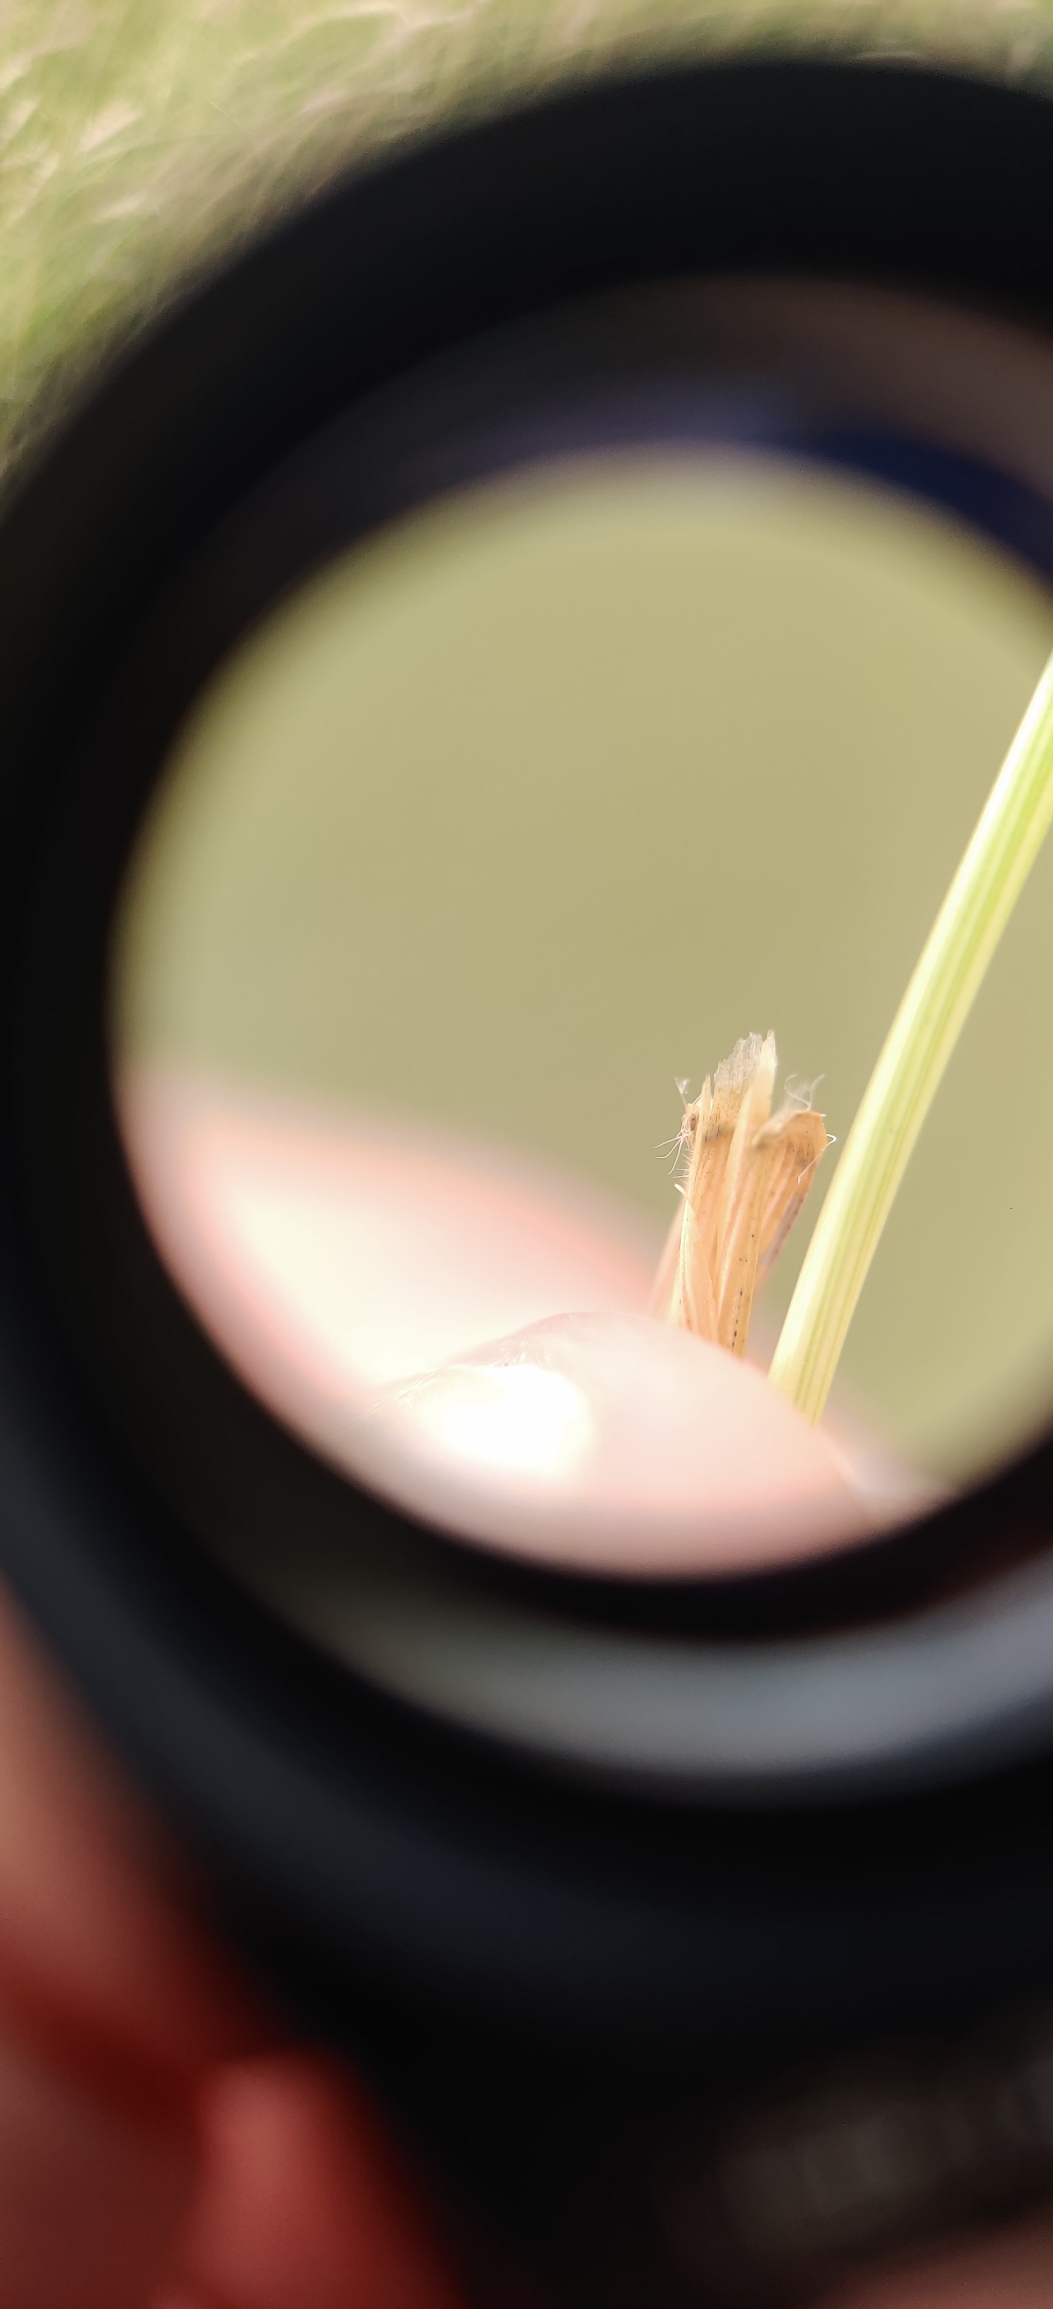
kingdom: Plantae
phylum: Tracheophyta
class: Liliopsida
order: Poales
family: Poaceae
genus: Anthoxanthum
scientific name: Anthoxanthum odoratum
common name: Vellugtende gulaks
